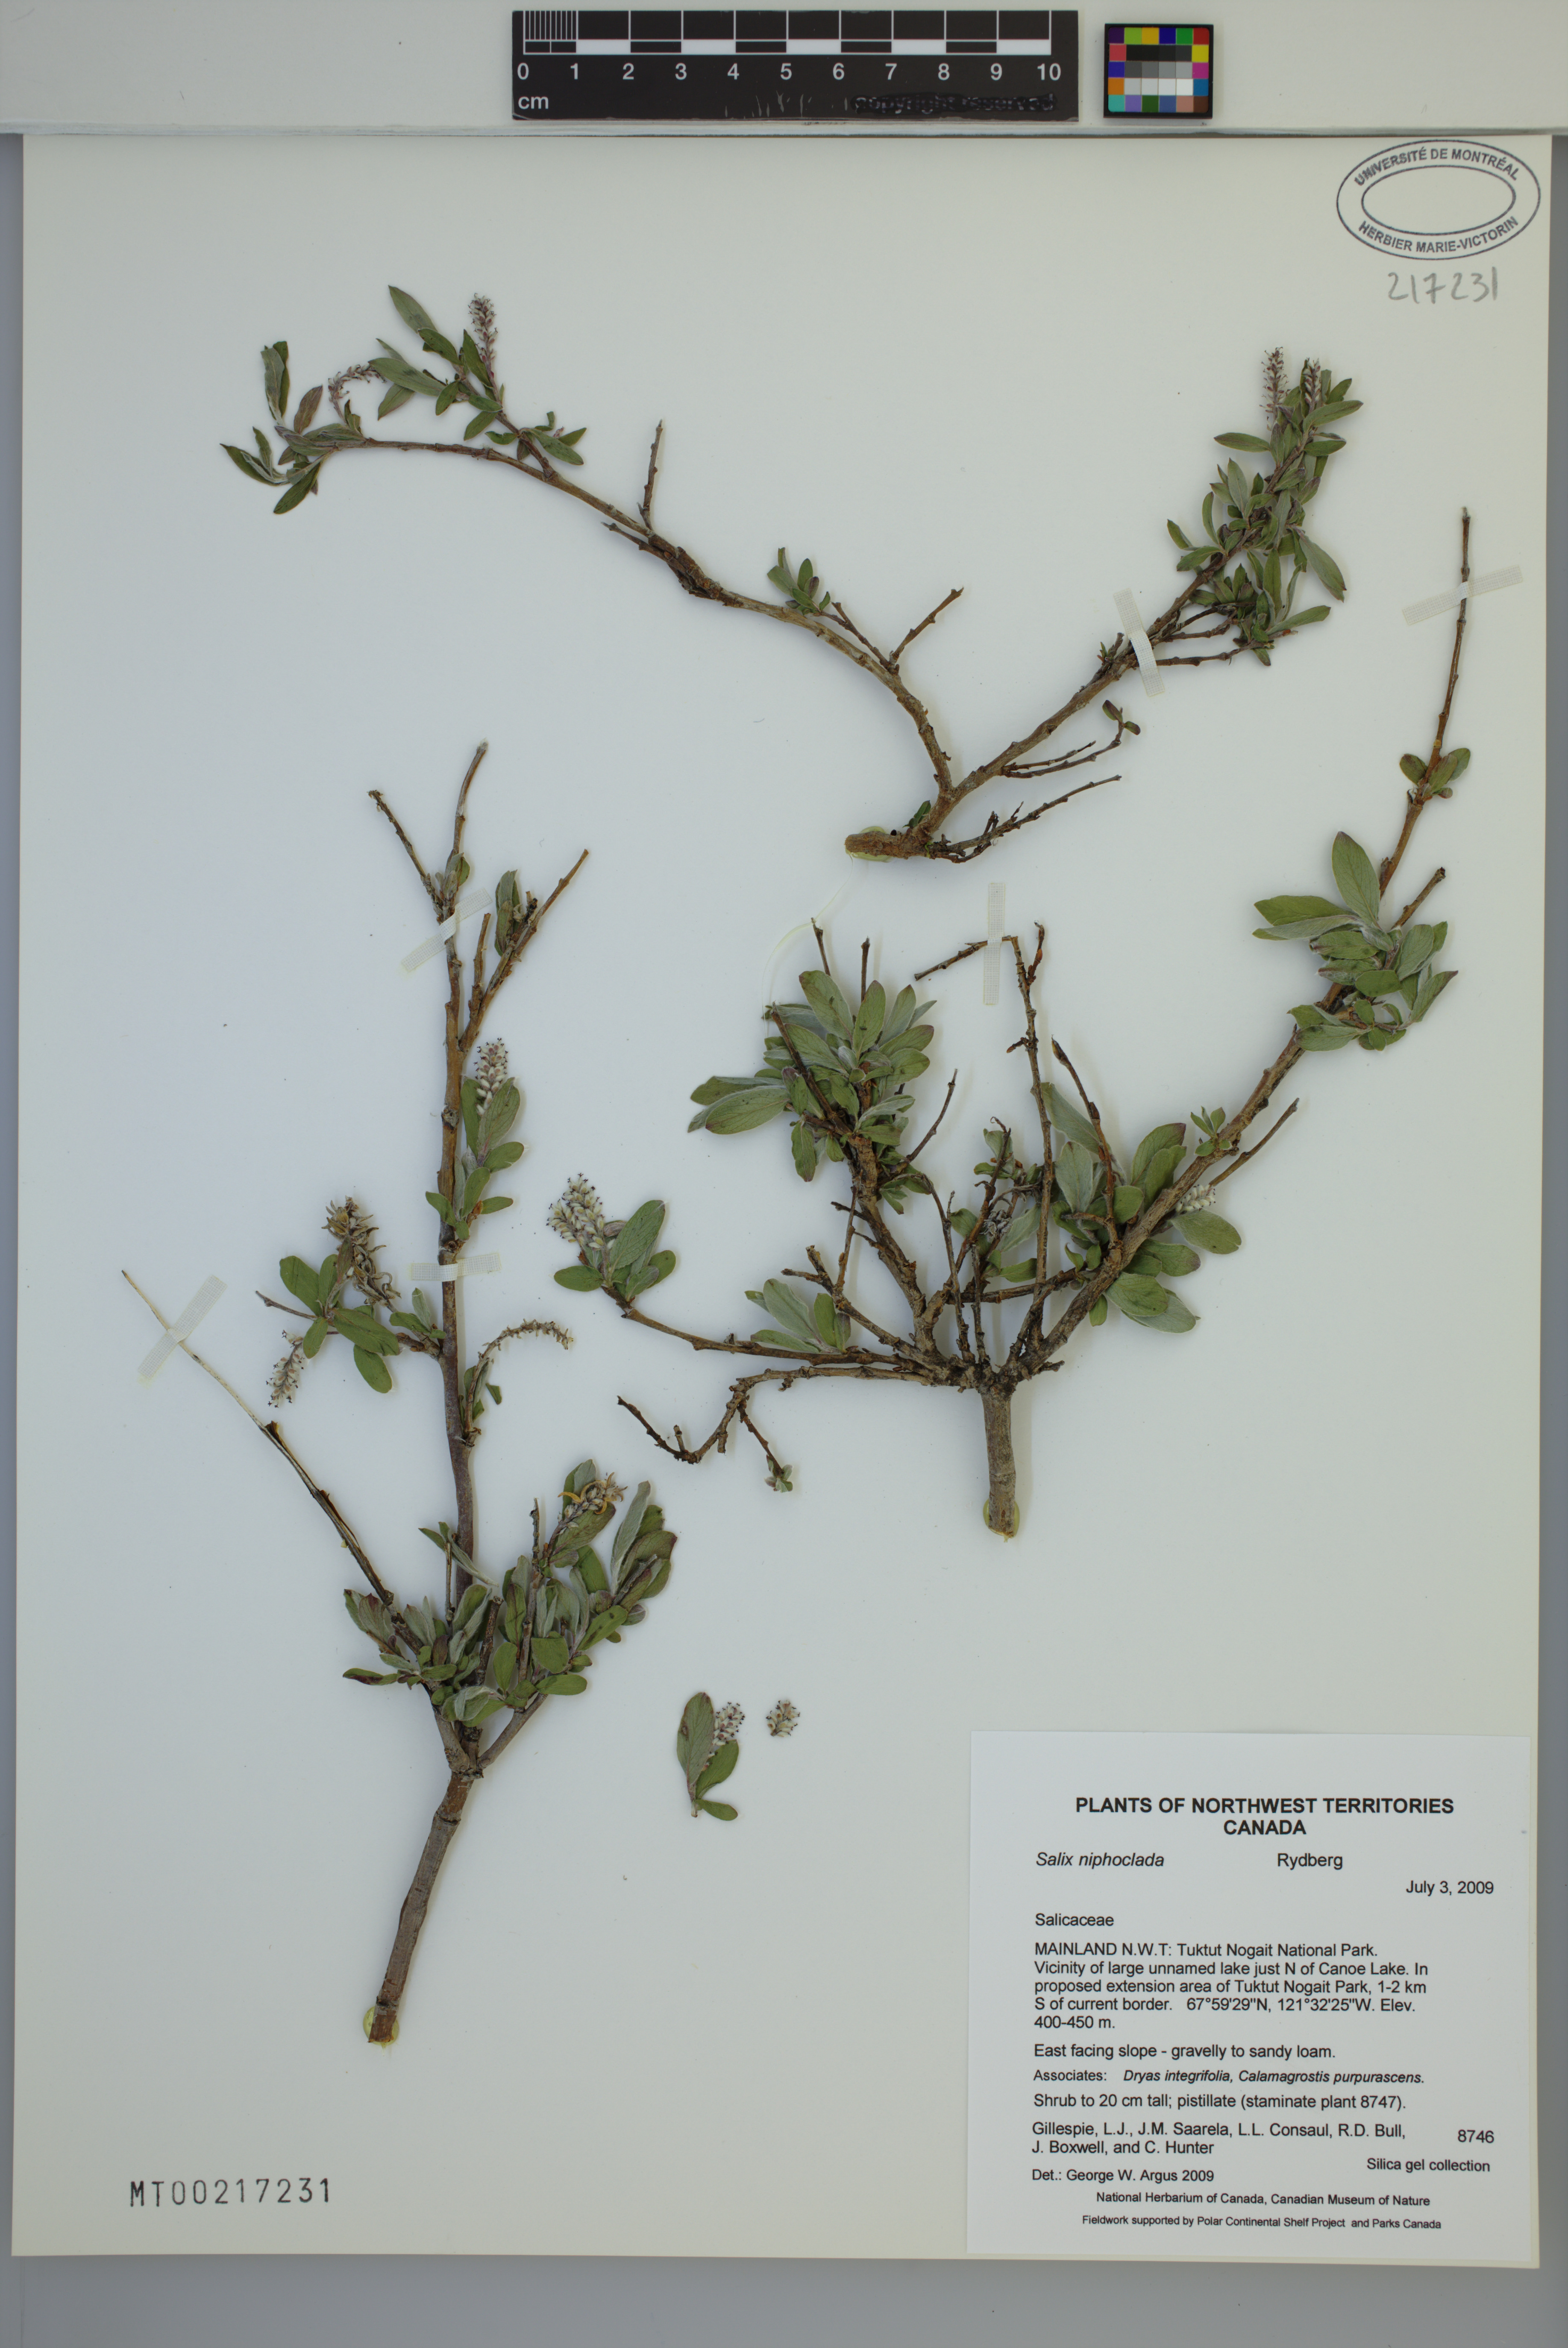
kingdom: Plantae
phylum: Tracheophyta
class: Magnoliopsida
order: Malpighiales
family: Salicaceae
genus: Salix
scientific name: Salix niphoclada
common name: Barren-ground willow
